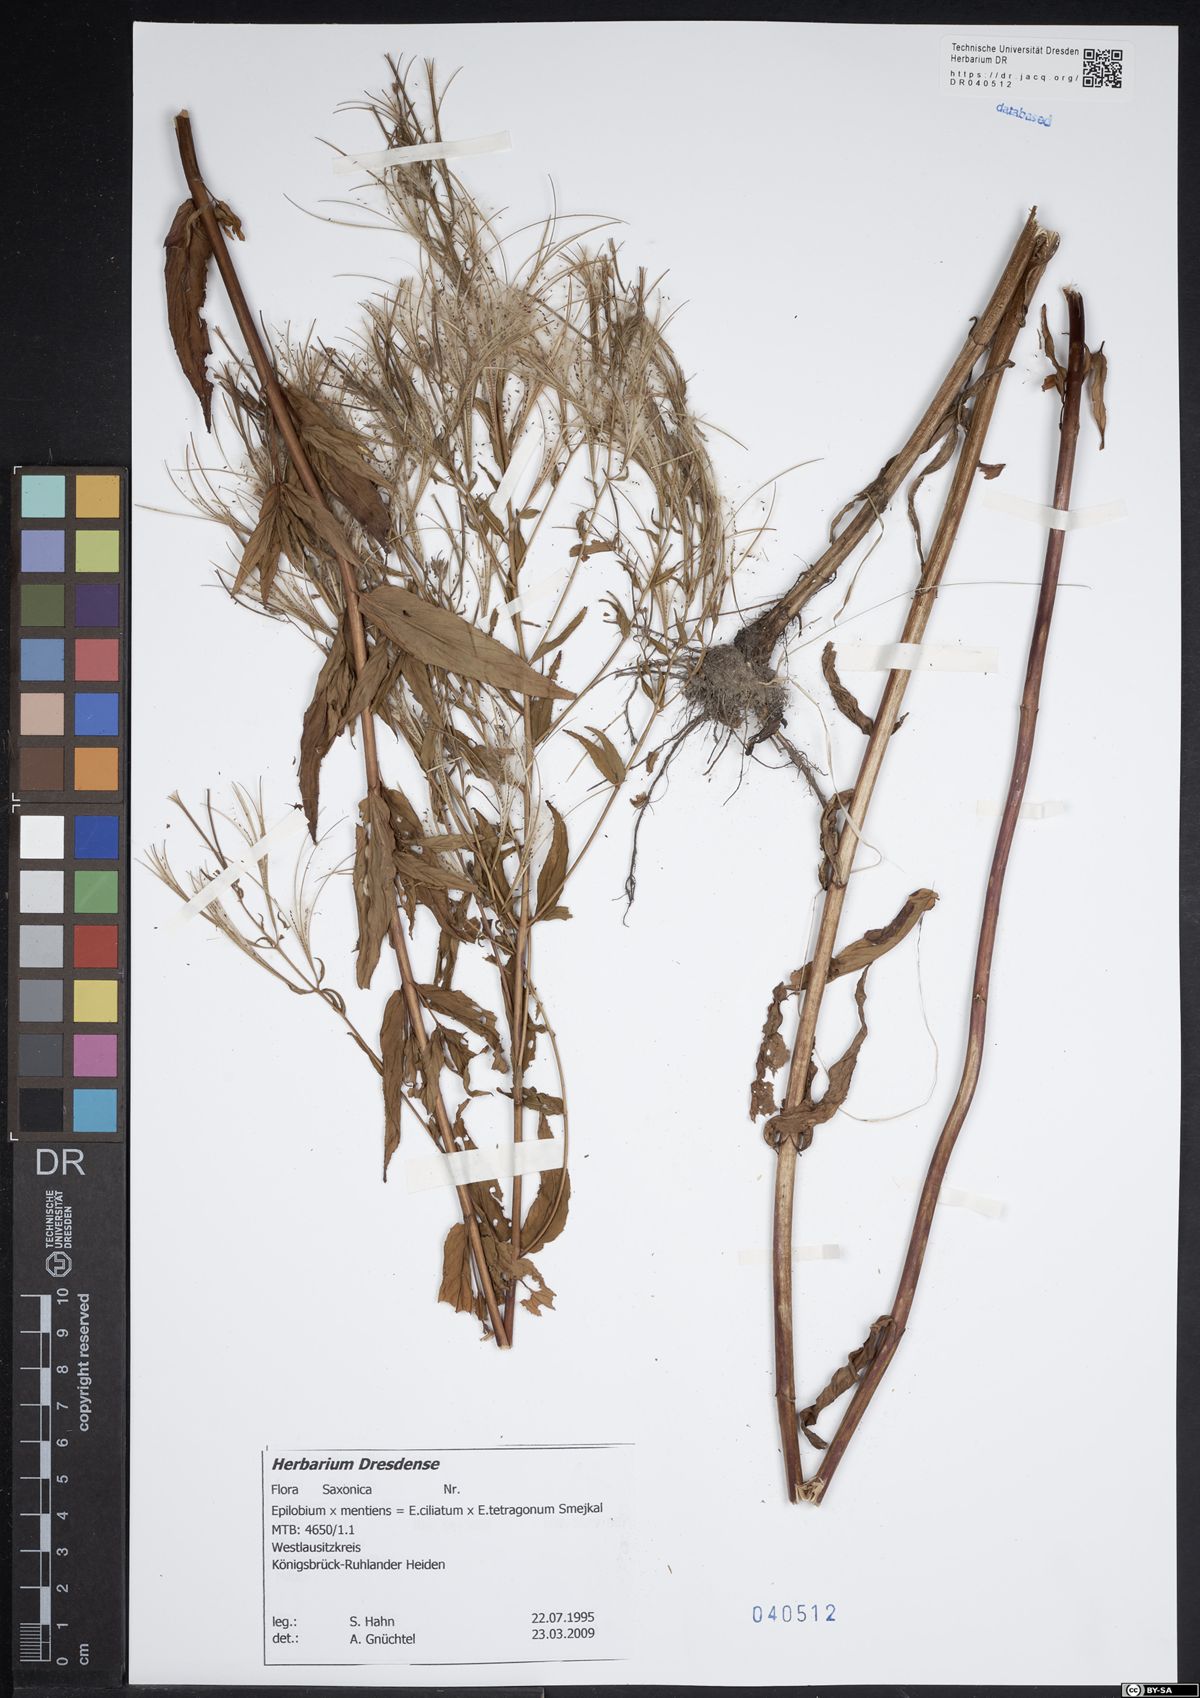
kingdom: Plantae
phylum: Tracheophyta
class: Magnoliopsida
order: Myrtales
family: Onagraceae
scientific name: Onagraceae
